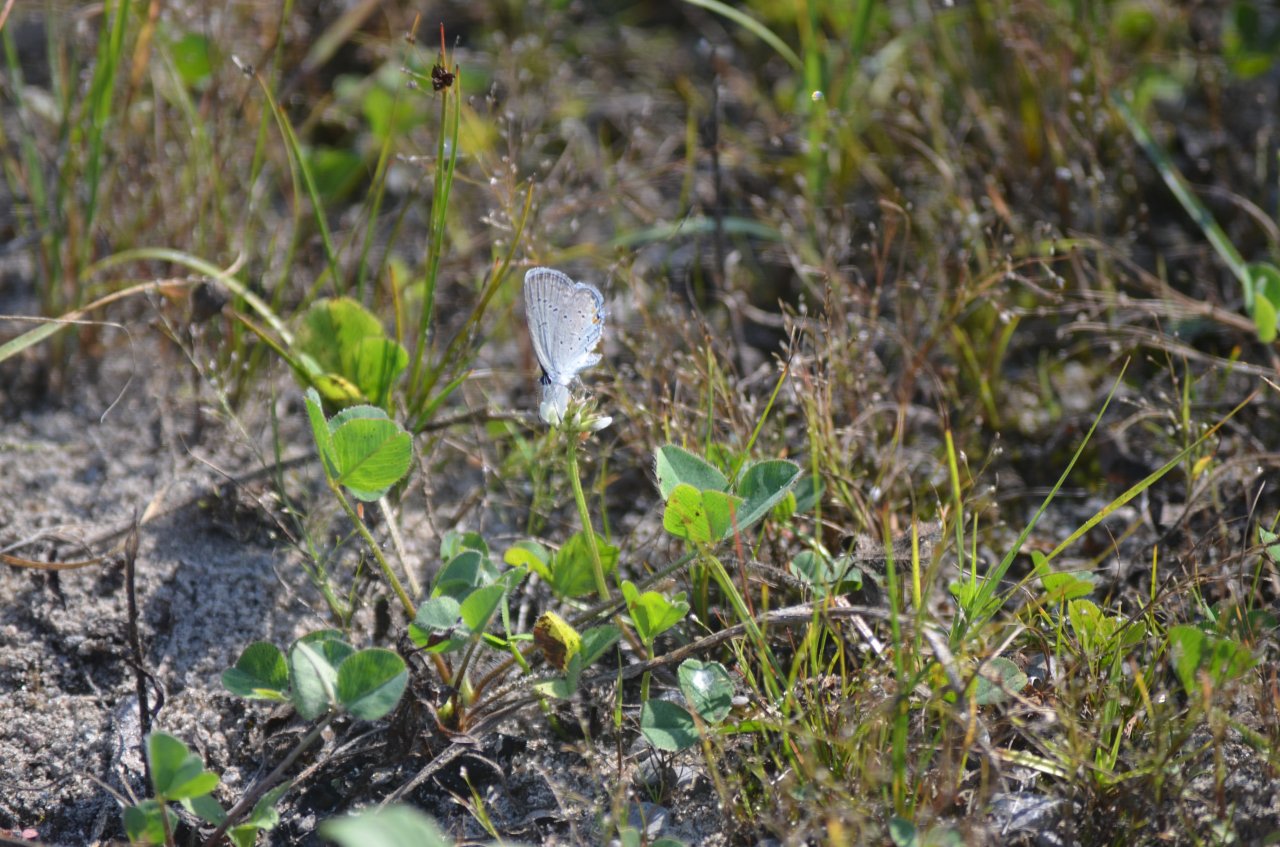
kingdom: Animalia
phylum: Arthropoda
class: Insecta
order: Lepidoptera
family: Lycaenidae
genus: Elkalyce
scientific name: Elkalyce comyntas
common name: Eastern Tailed-Blue
